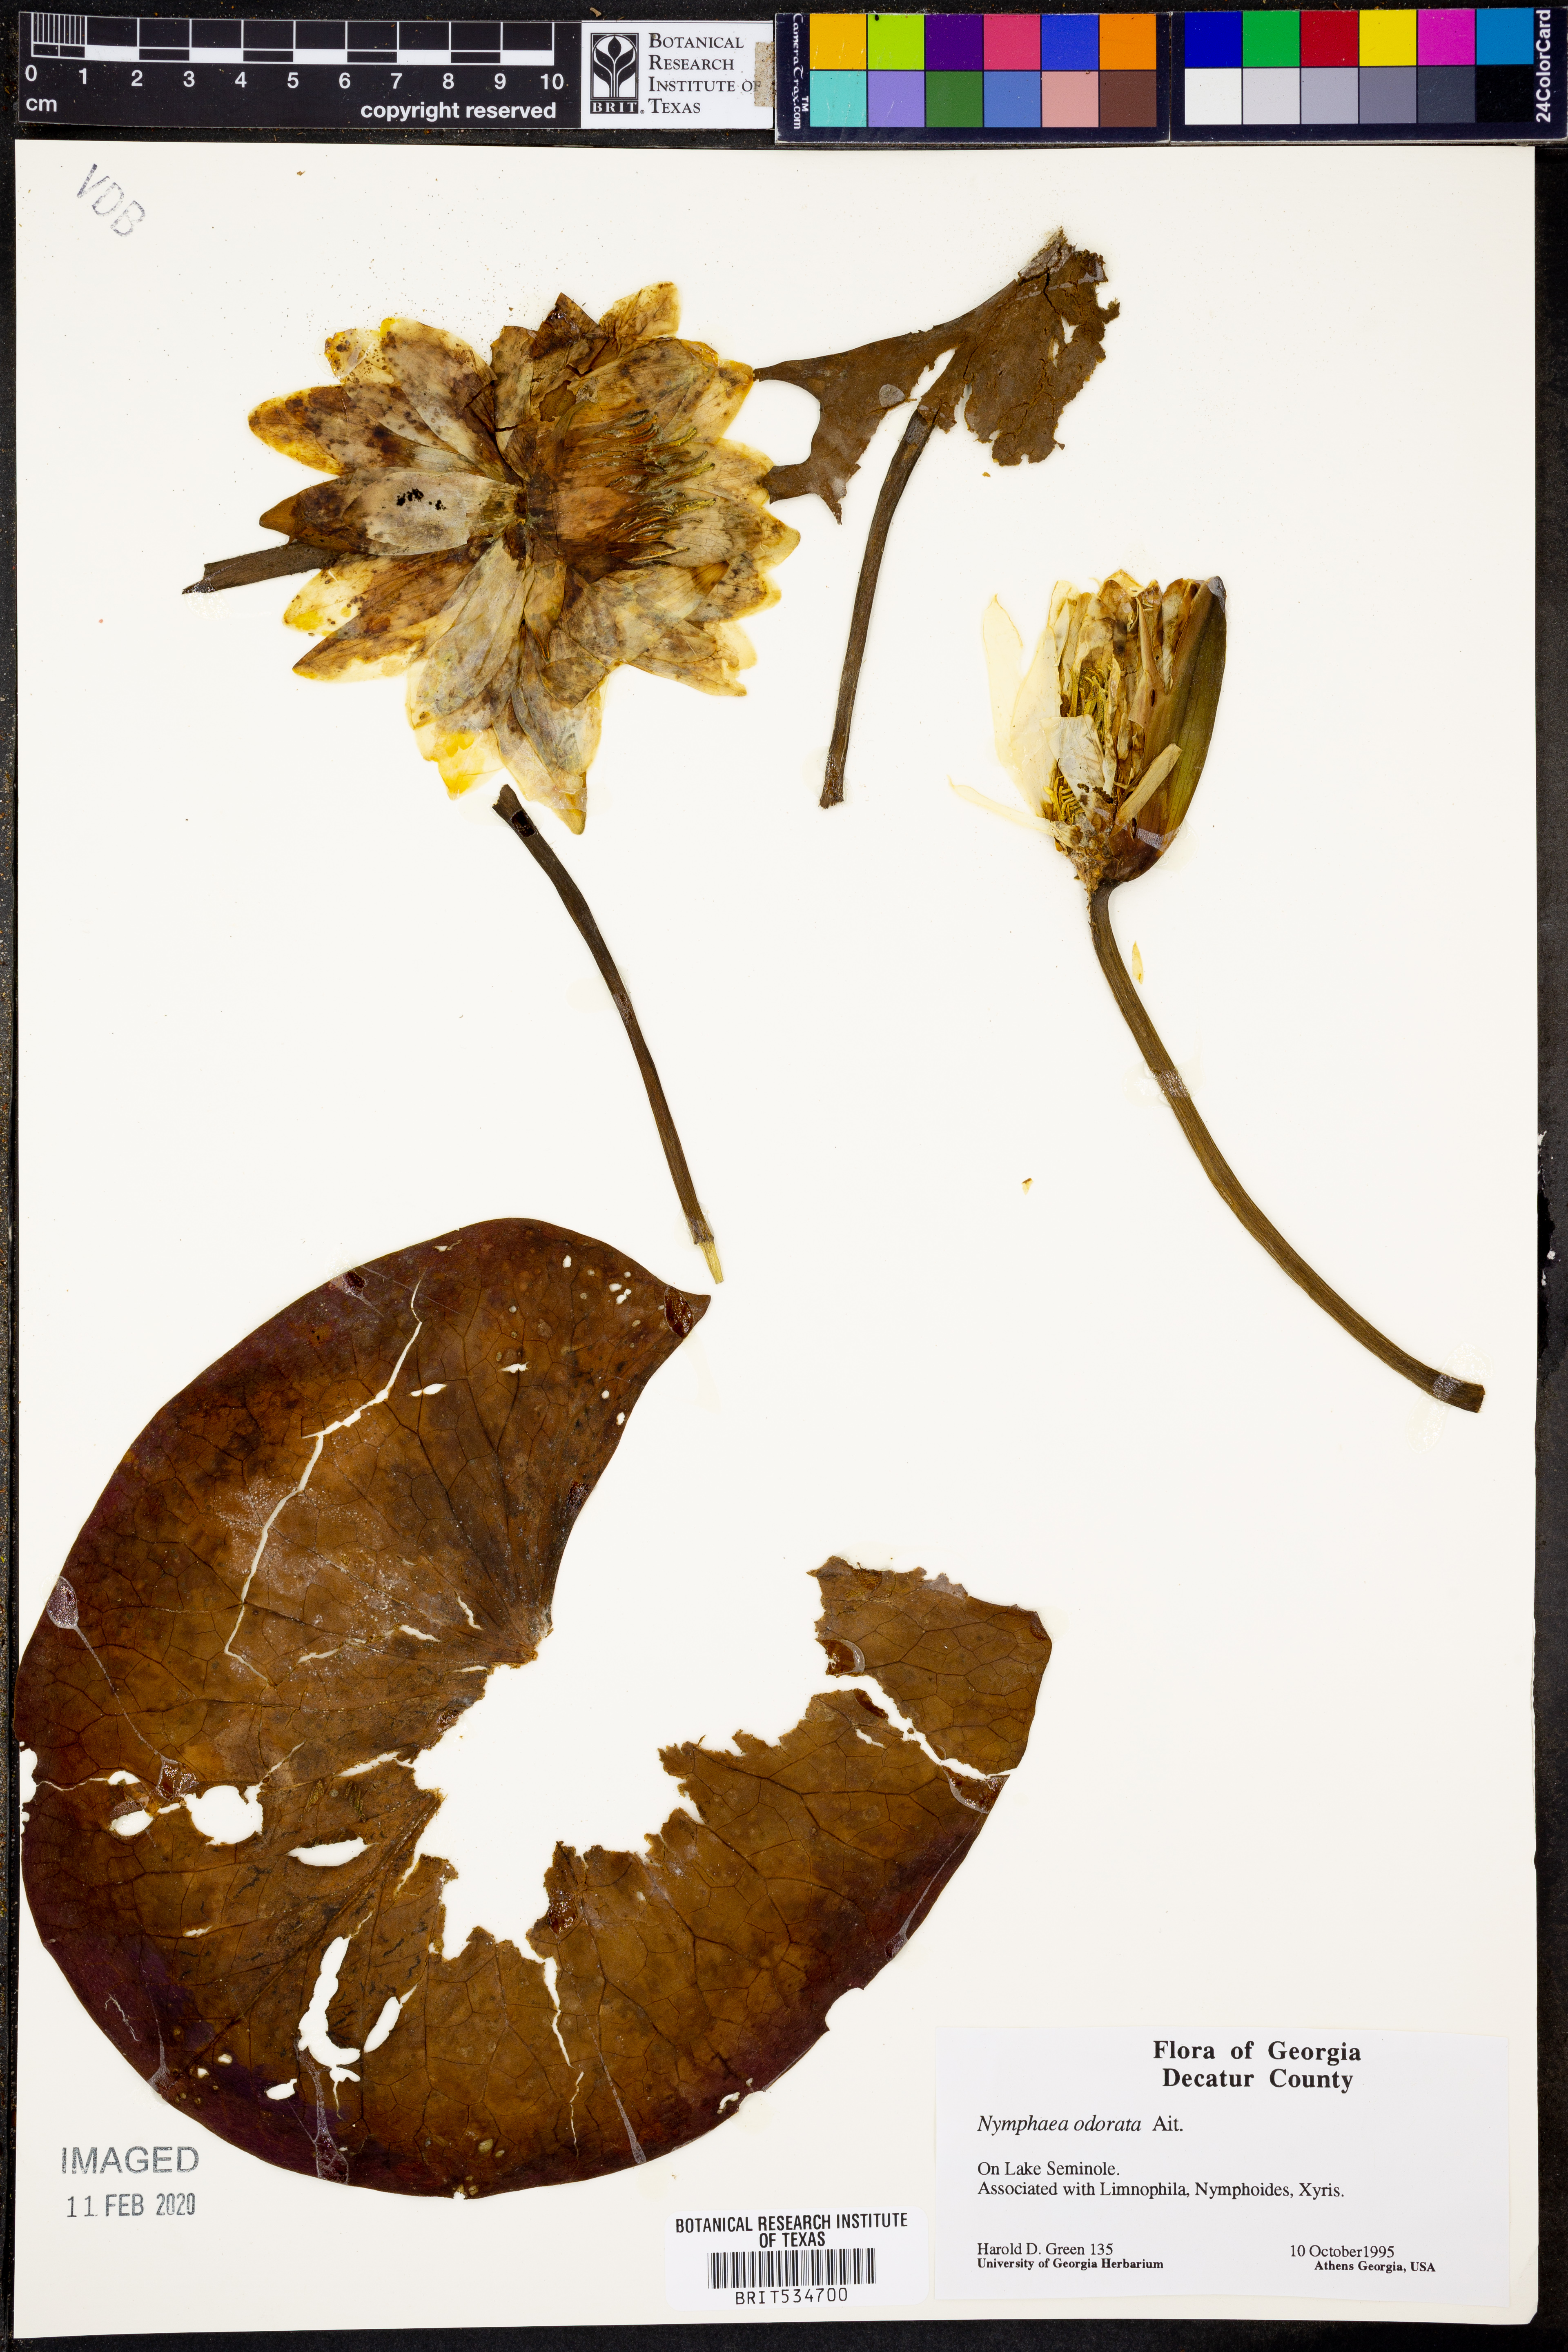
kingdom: Plantae
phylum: Tracheophyta
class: Magnoliopsida
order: Nymphaeales
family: Nymphaeaceae
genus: Nymphaea
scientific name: Nymphaea odorata
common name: Fragrant water-lily
